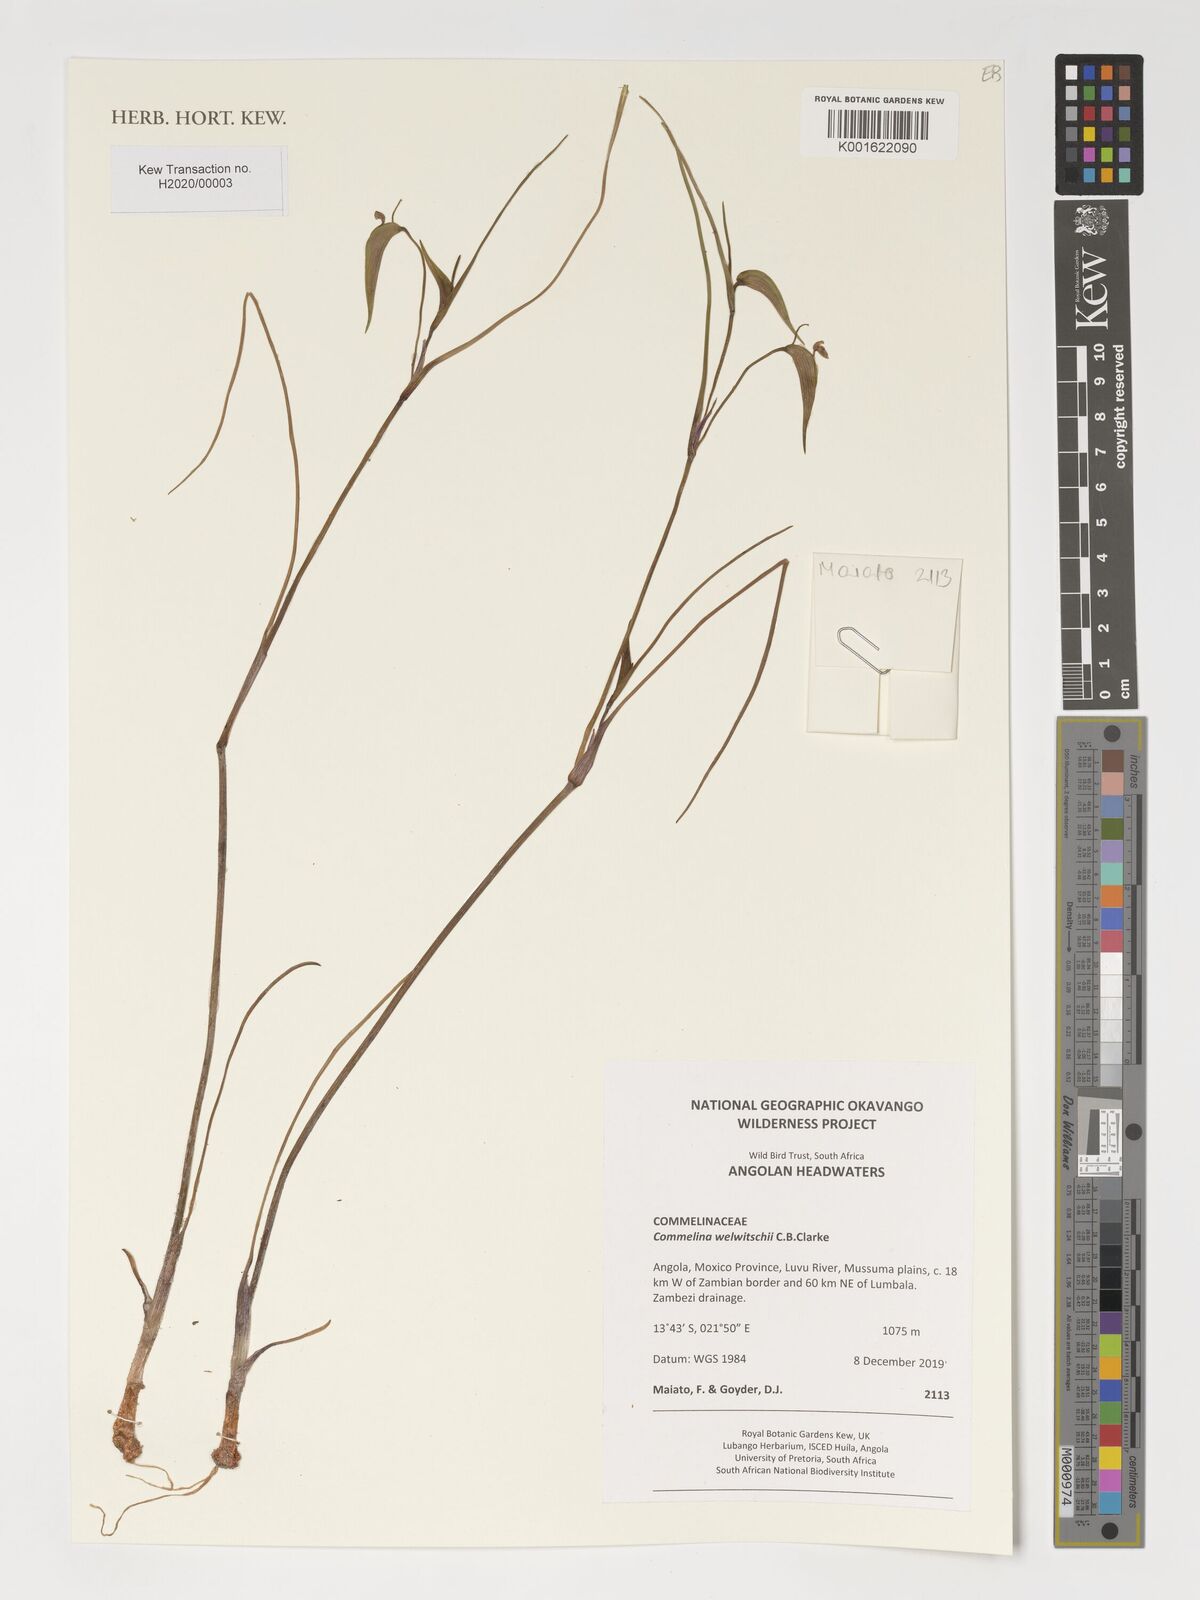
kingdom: Plantae
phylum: Tracheophyta
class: Liliopsida
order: Commelinales
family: Commelinaceae
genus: Commelina
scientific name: Commelina welwitschii
